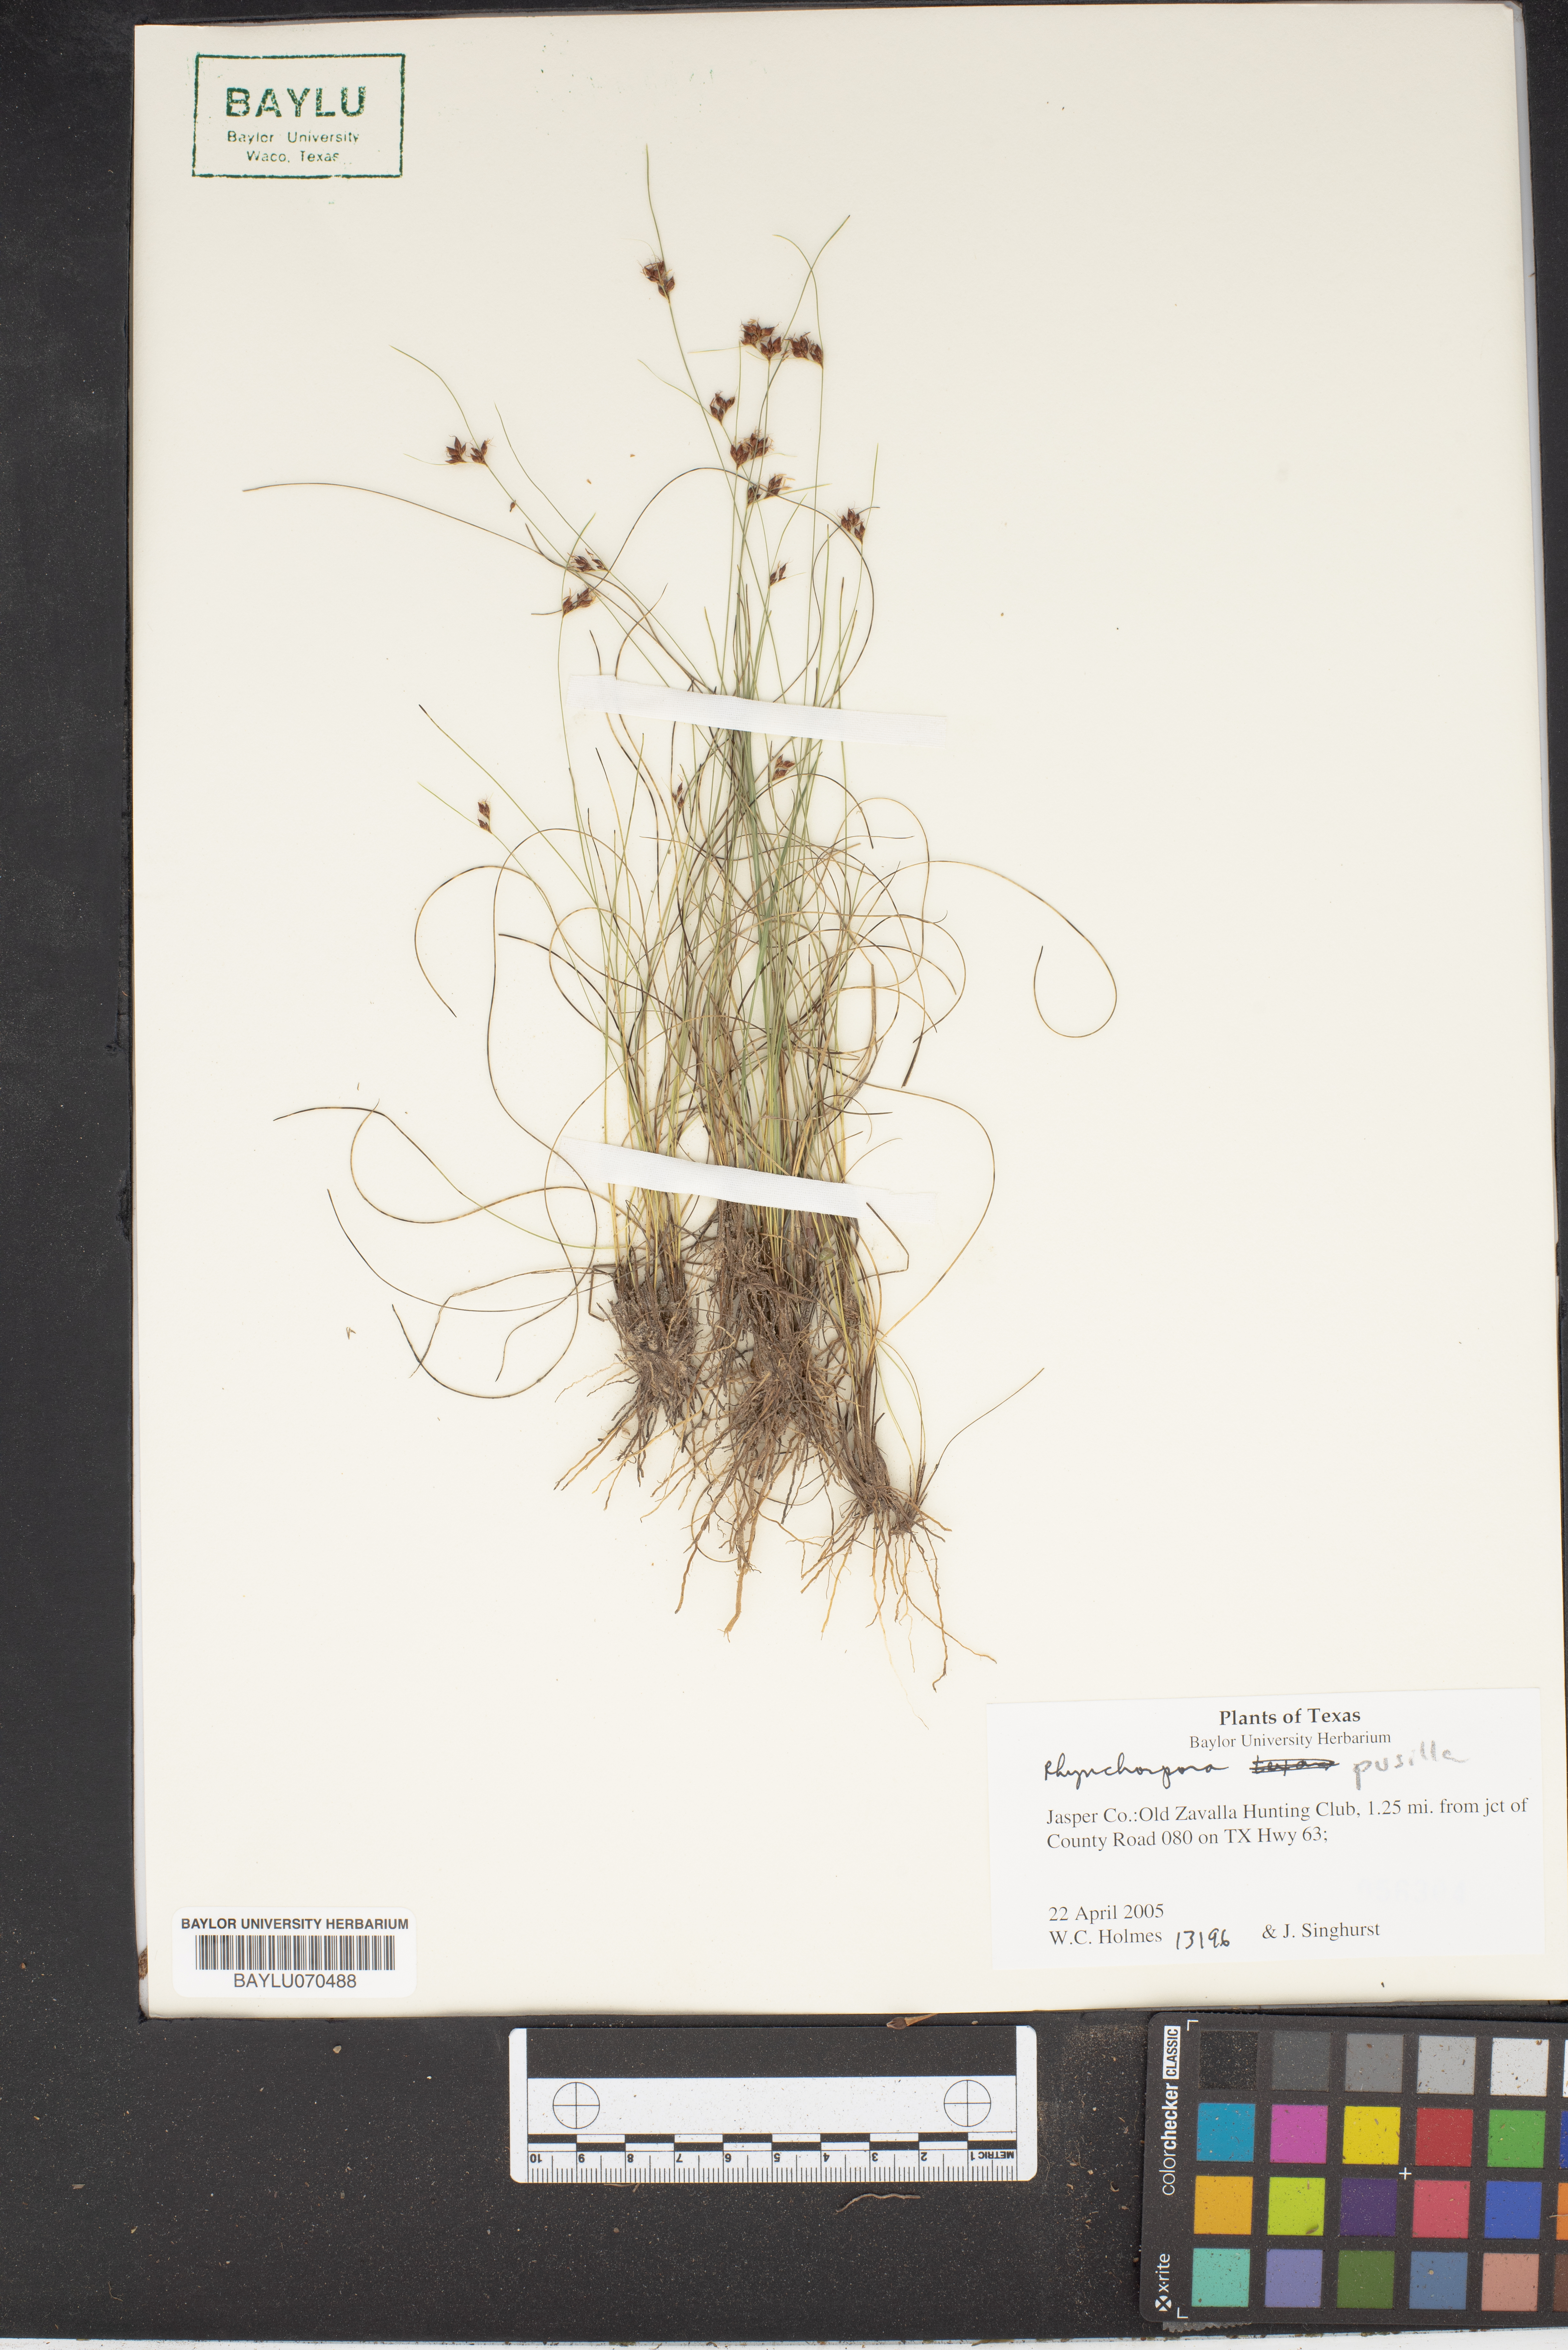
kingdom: Plantae
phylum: Tracheophyta
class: Liliopsida
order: Poales
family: Cyperaceae
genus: Rhynchospora
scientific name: Rhynchospora pusilla
